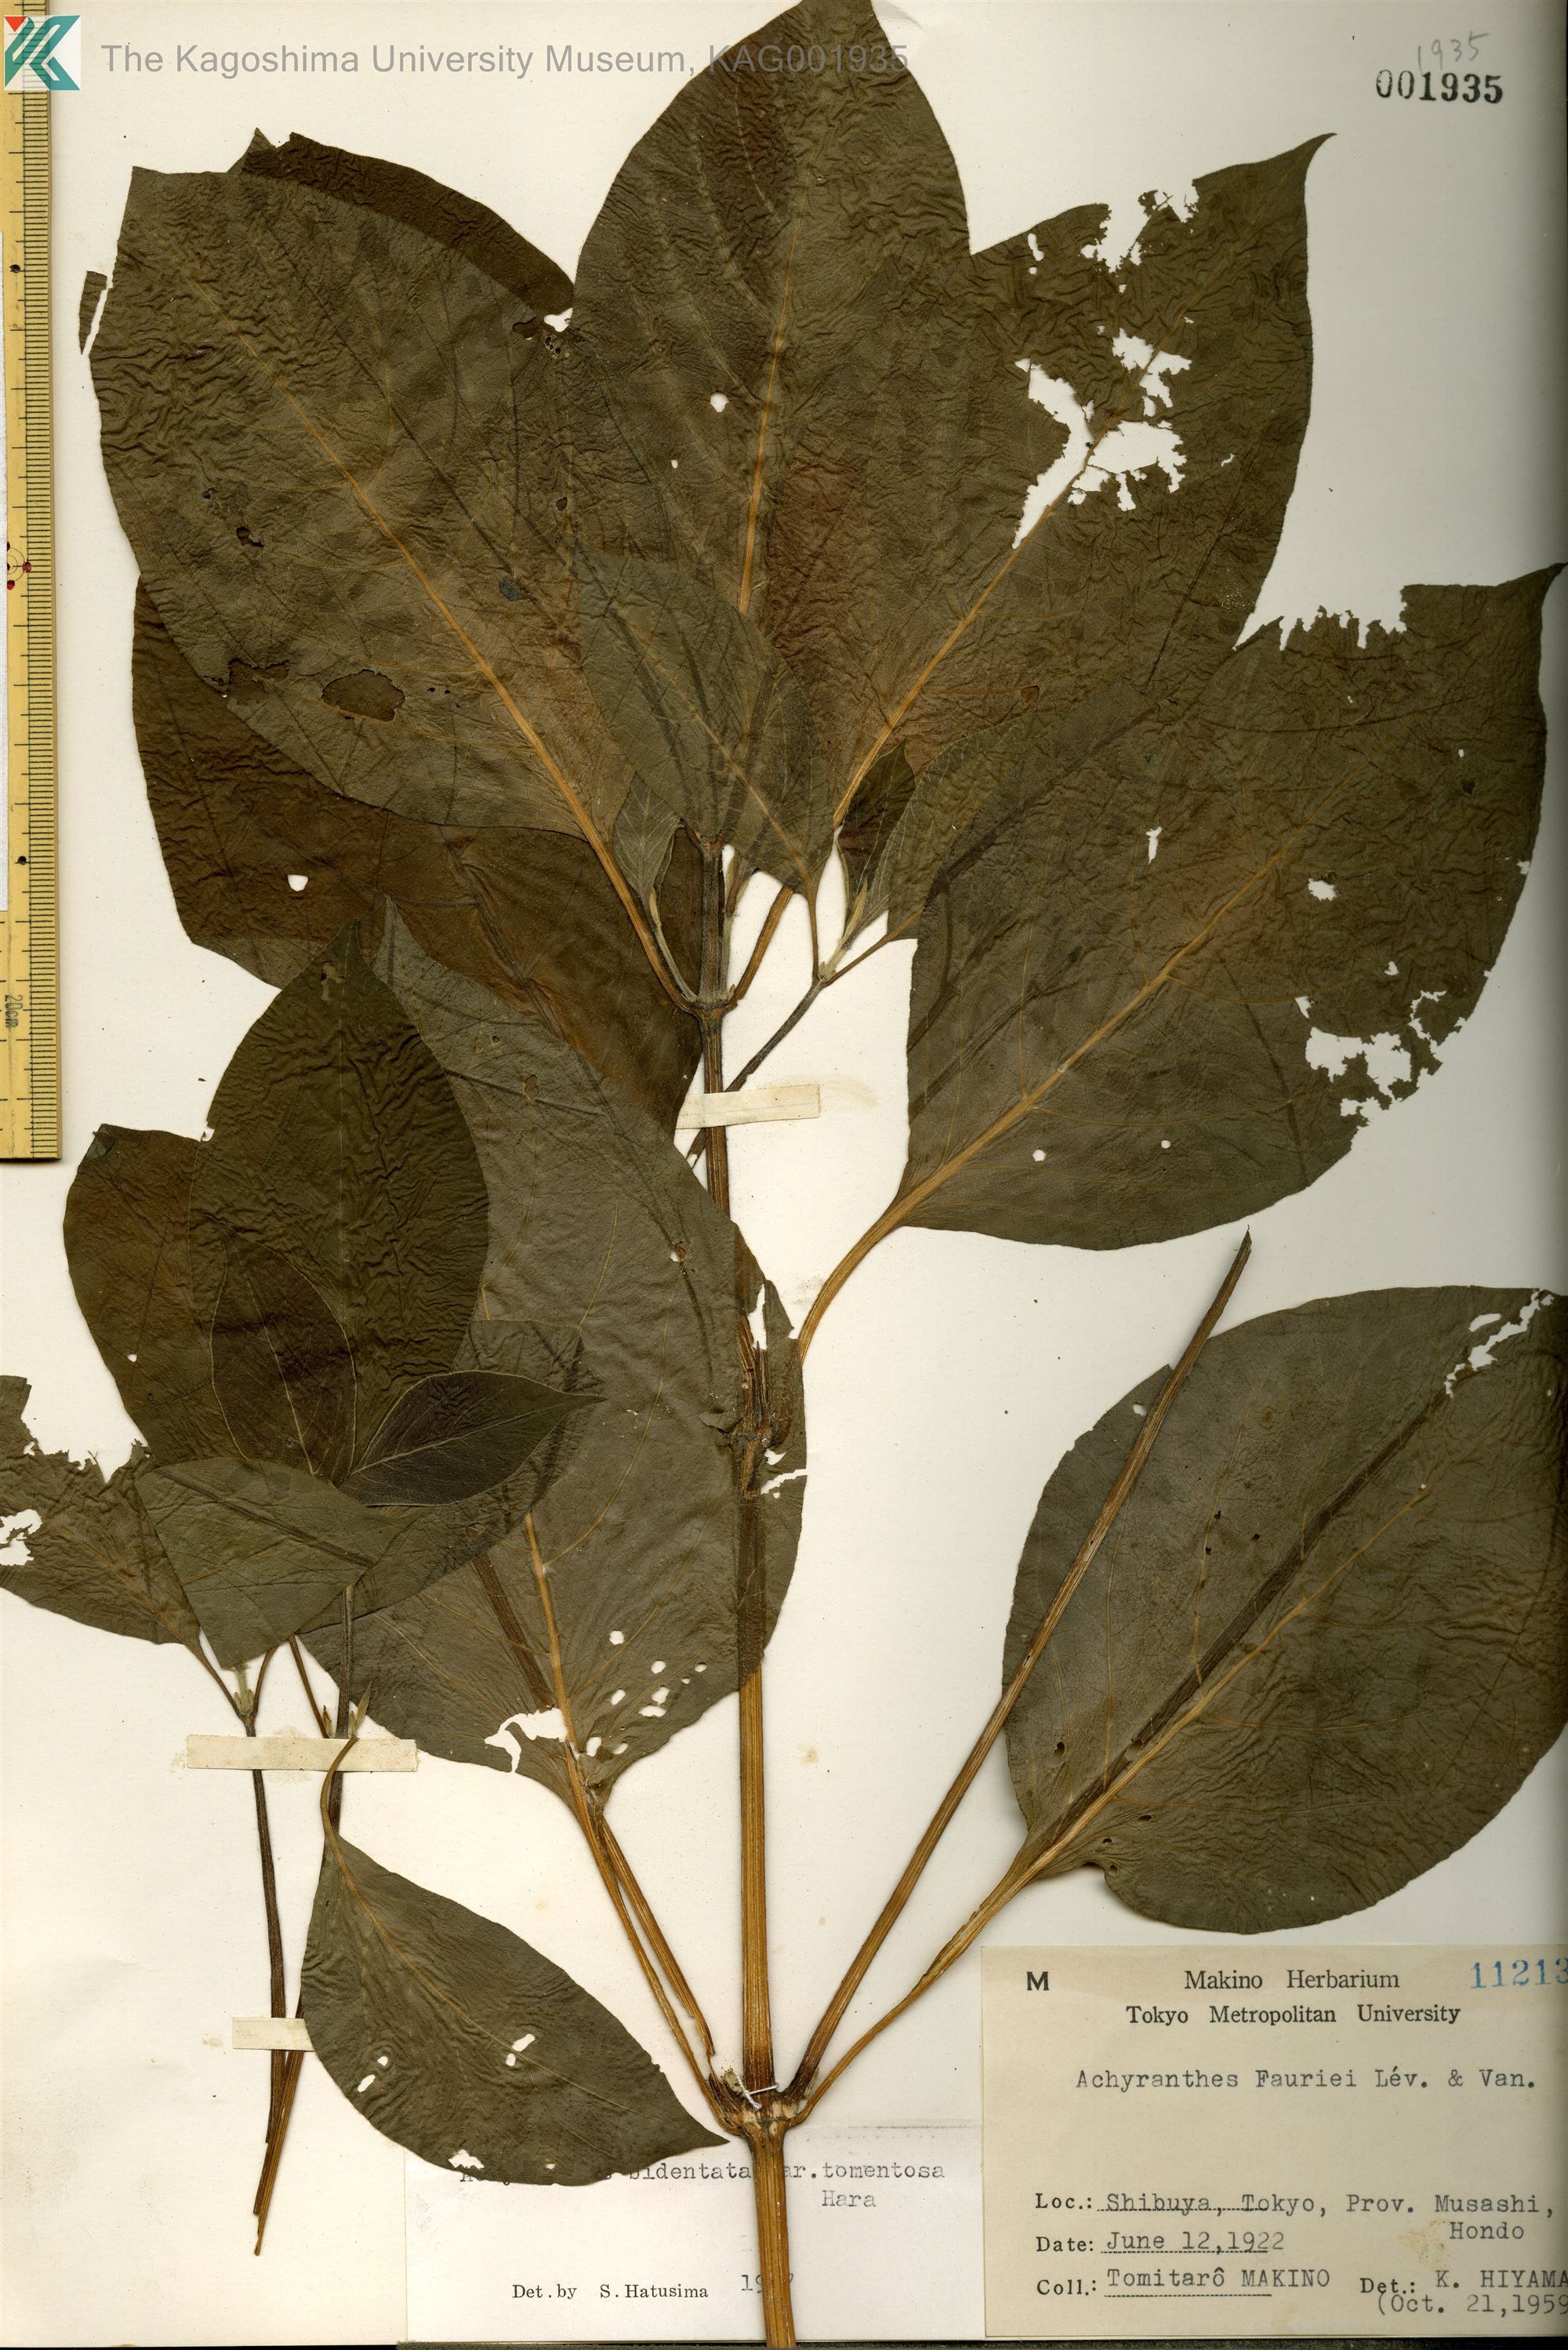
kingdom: Plantae
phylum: Tracheophyta
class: Magnoliopsida
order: Caryophyllales
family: Amaranthaceae
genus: Achyranthes
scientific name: Achyranthes bidentata
